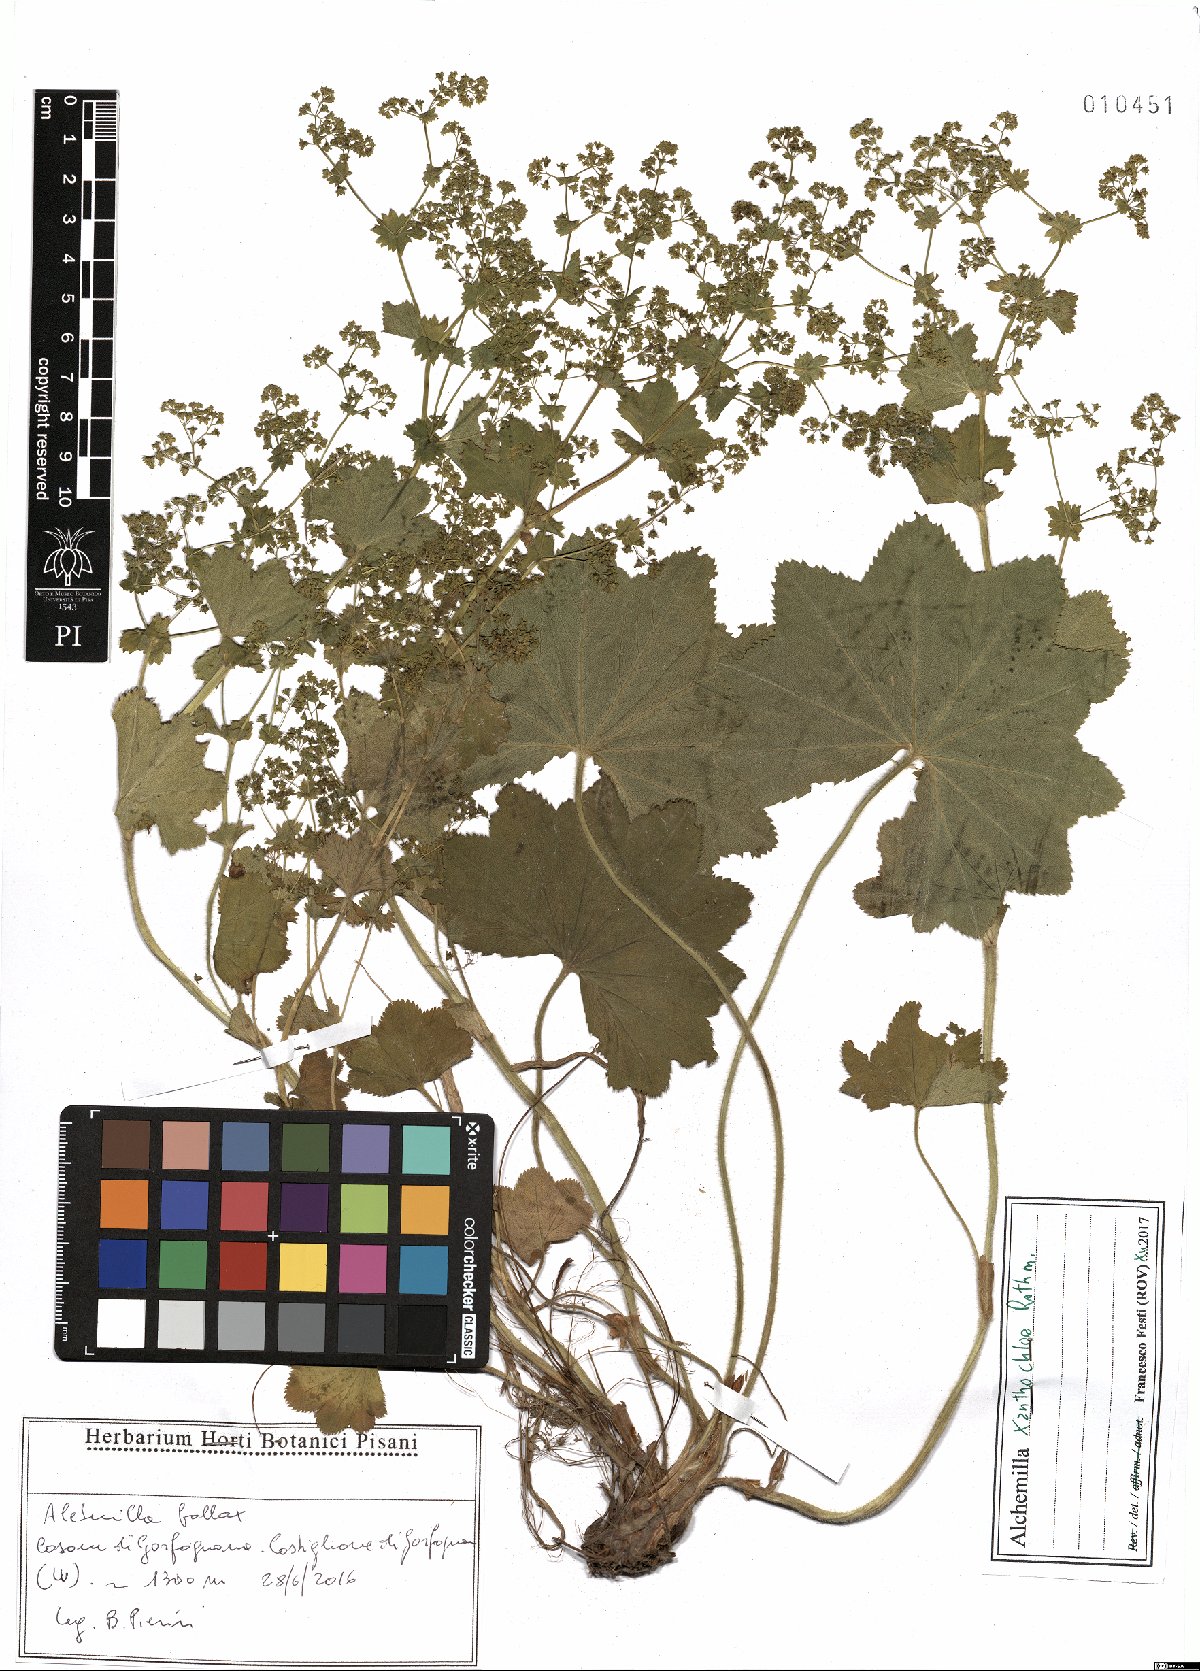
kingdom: Plantae
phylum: Tracheophyta
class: Magnoliopsida
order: Rosales
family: Rosaceae
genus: Alchemilla
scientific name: Alchemilla xanthochlora
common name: Intermediate lady's-mantle
